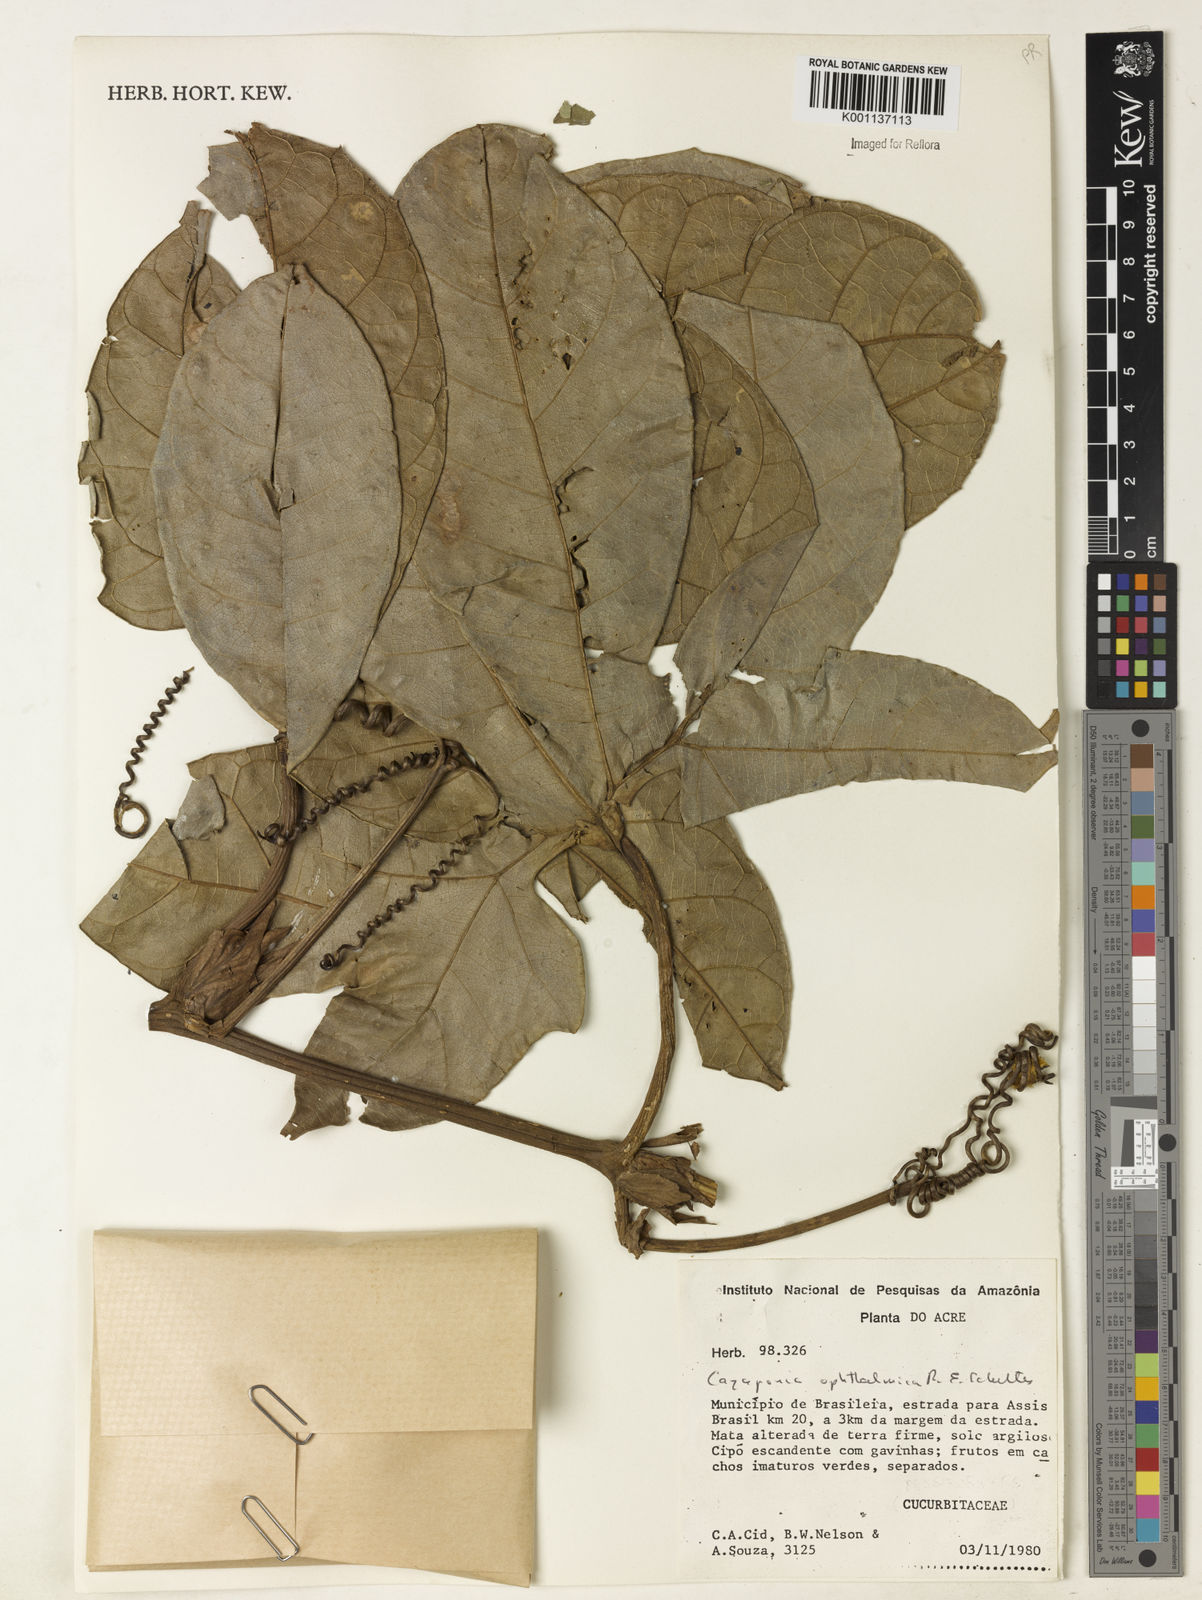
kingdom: Plantae
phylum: Tracheophyta
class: Magnoliopsida
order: Cucurbitales
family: Cucurbitaceae
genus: Cayaponia
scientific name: Cayaponia ophthalmica
